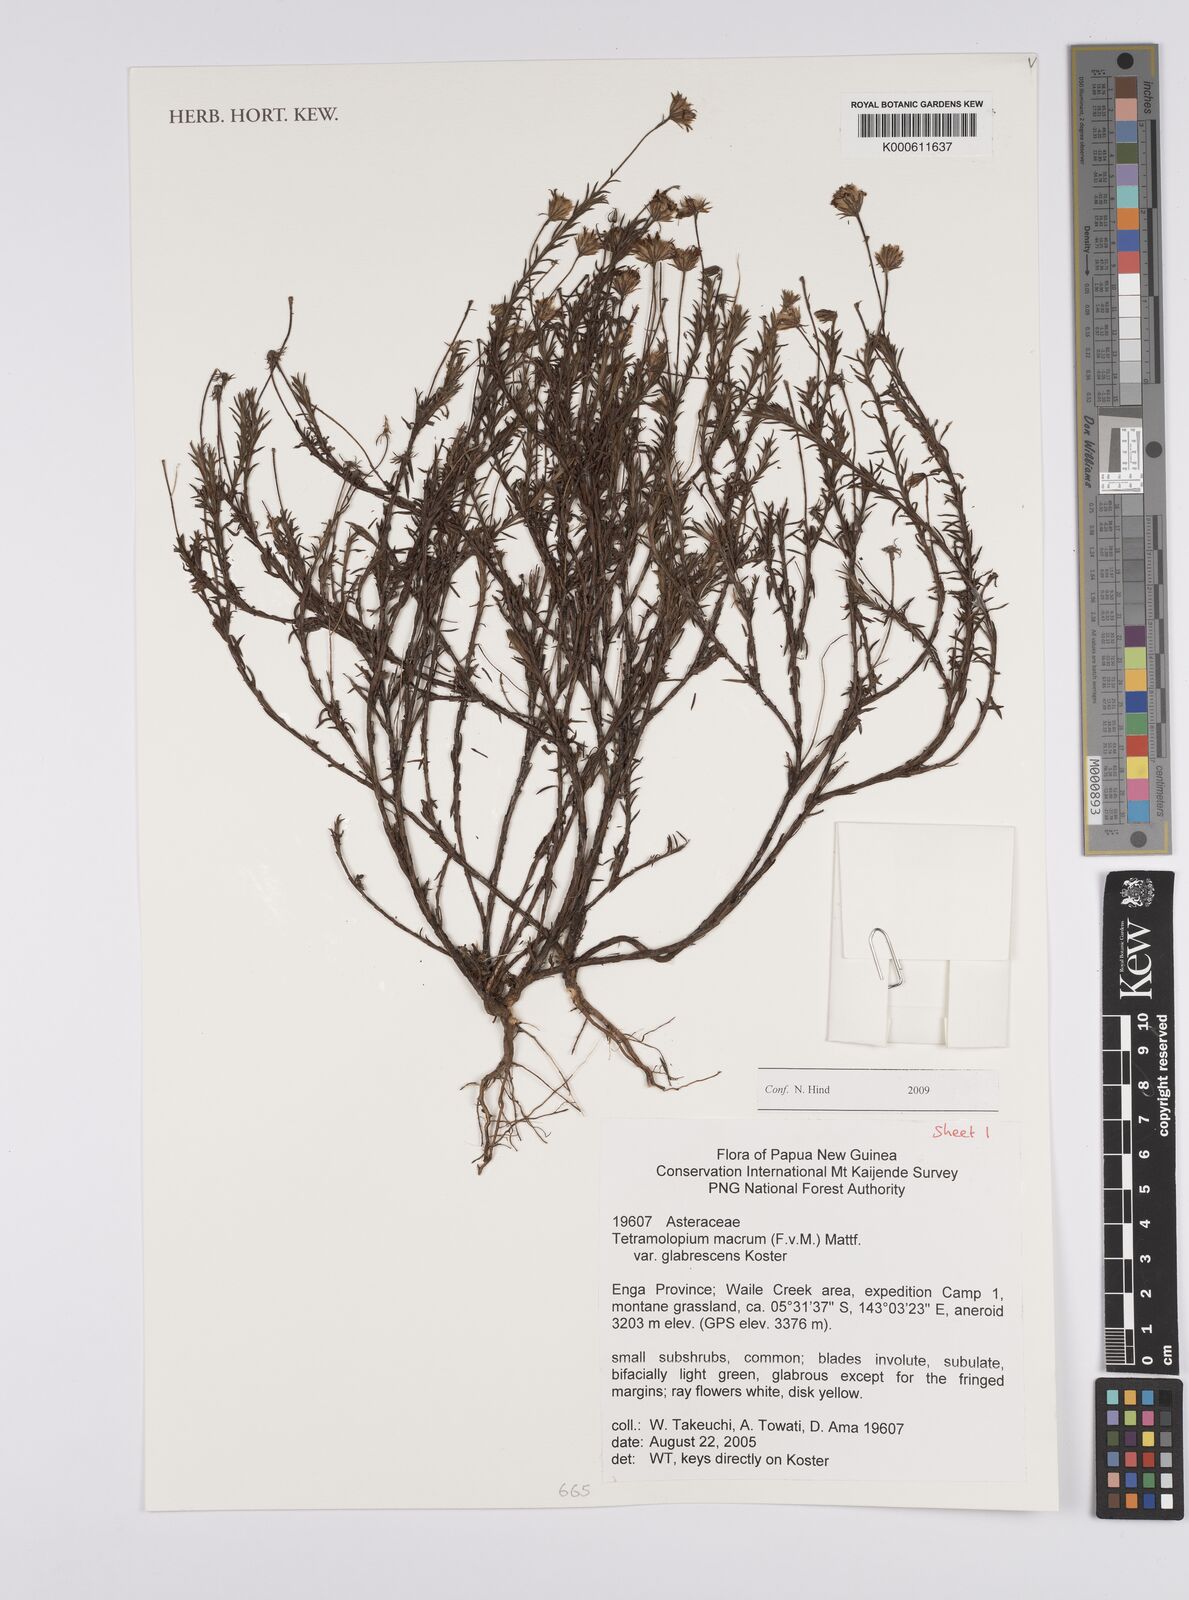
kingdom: Plantae
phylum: Tracheophyta
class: Magnoliopsida
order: Asterales
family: Asteraceae
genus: Tetramolopium
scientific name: Tetramolopium macrum
